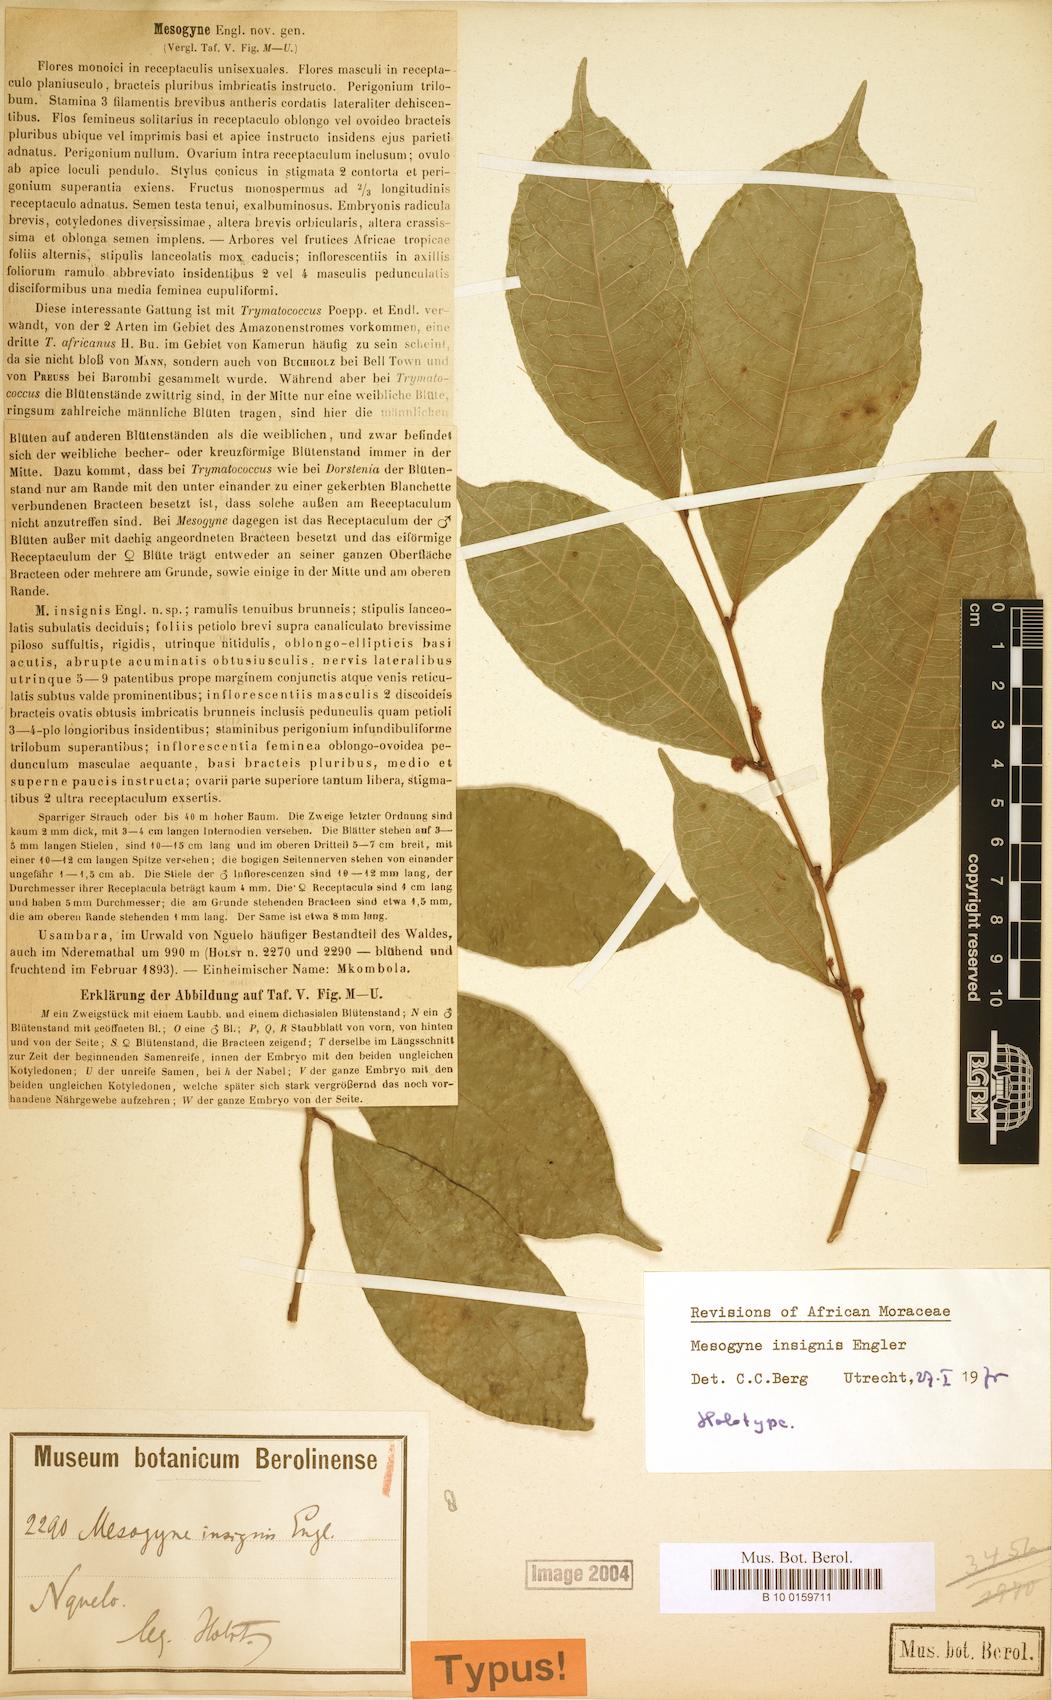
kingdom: Plantae
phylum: Tracheophyta
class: Magnoliopsida
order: Rosales
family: Moraceae
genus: Mesogyne
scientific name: Mesogyne insignis
